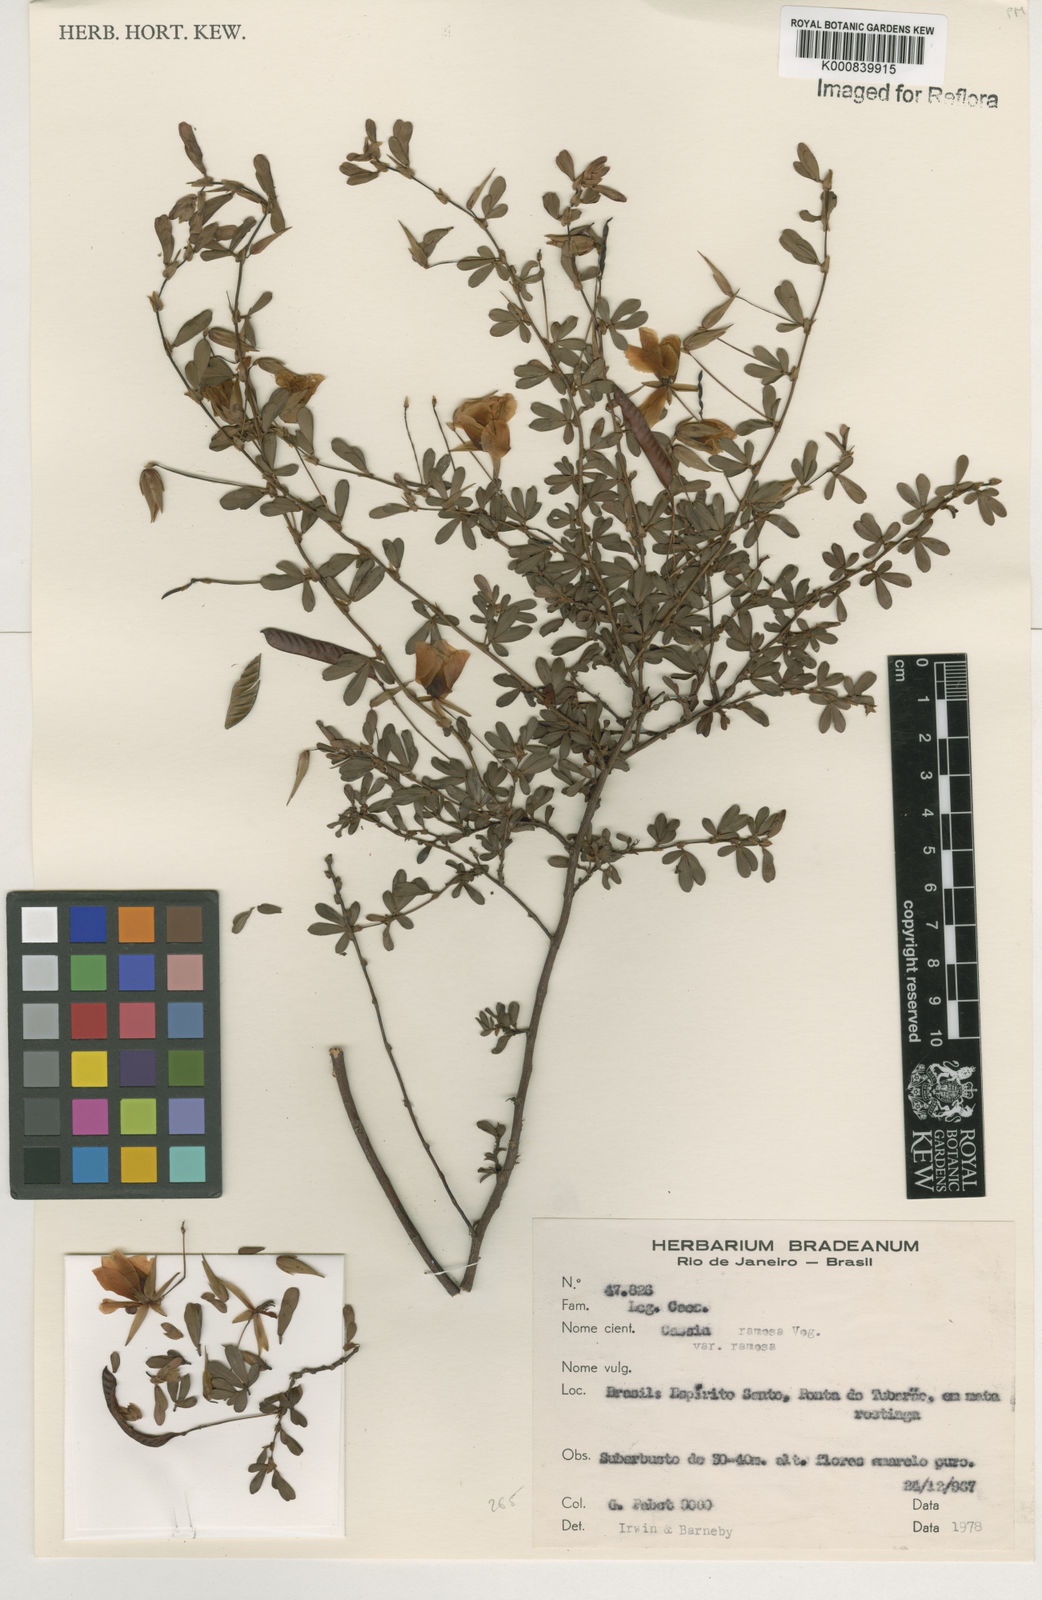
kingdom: Plantae
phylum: Tracheophyta
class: Magnoliopsida
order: Fabales
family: Fabaceae
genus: Chamaecrista
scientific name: Chamaecrista ramosa
